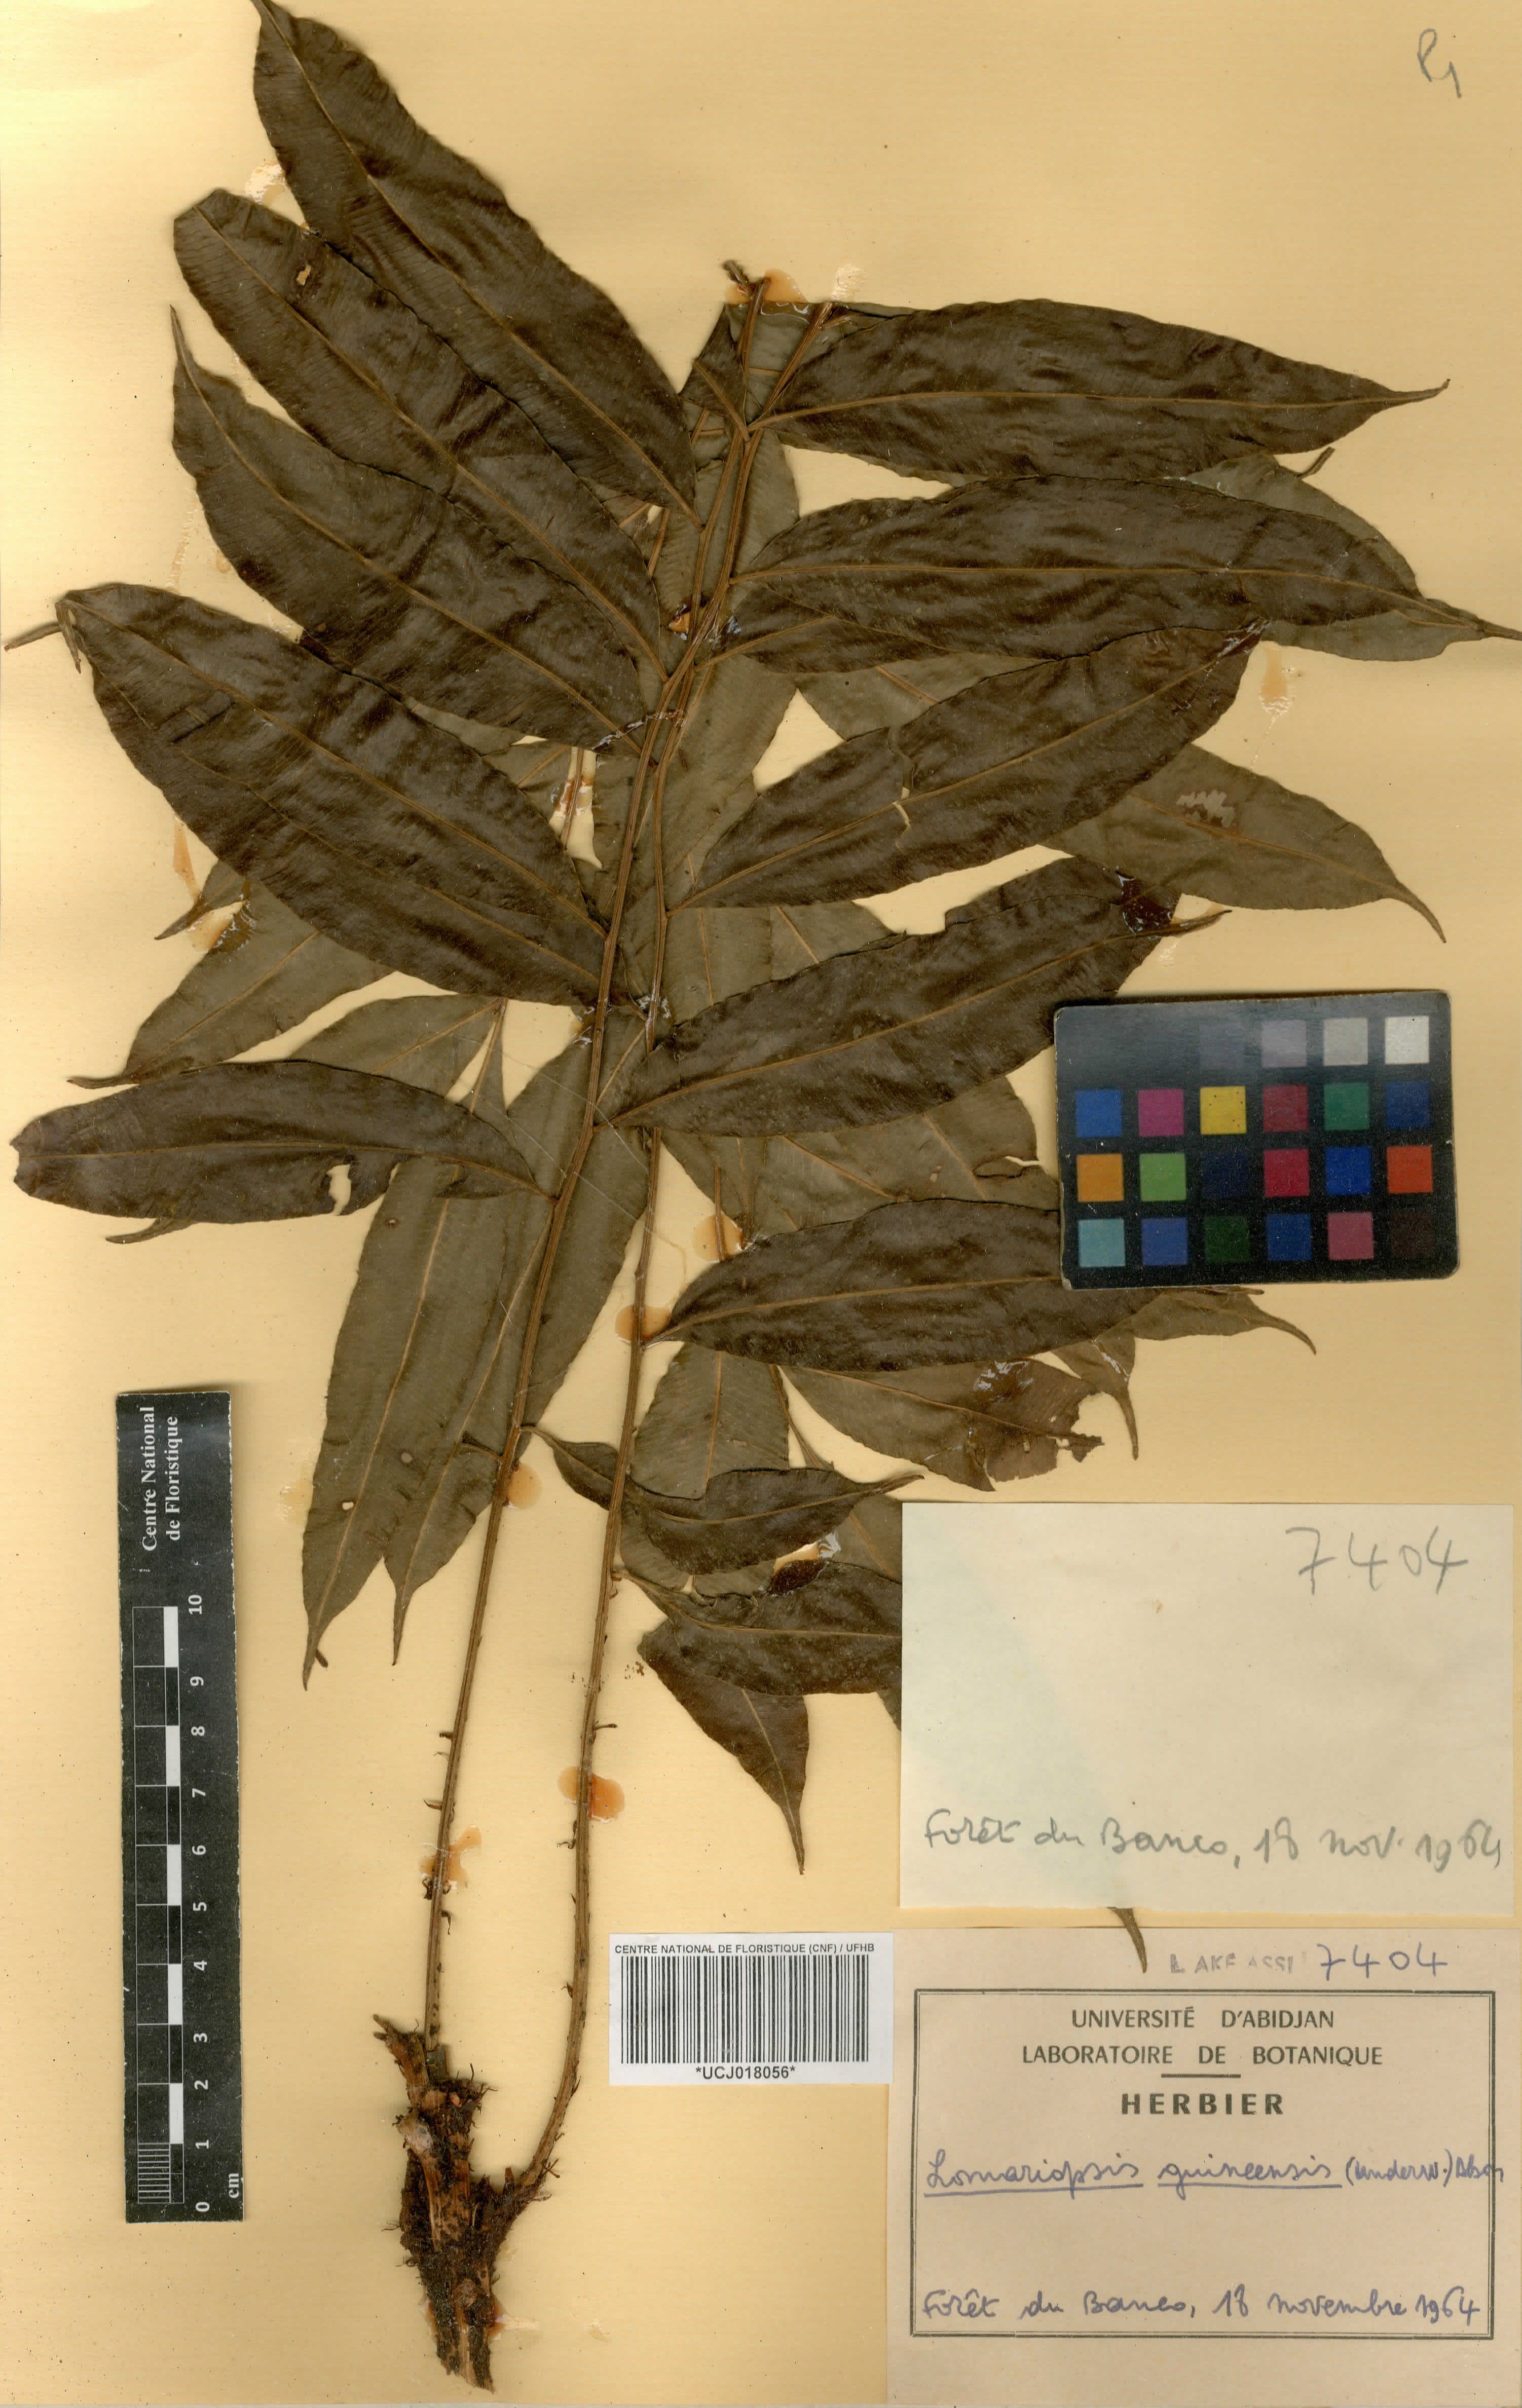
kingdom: Plantae
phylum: Tracheophyta
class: Polypodiopsida
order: Polypodiales
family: Lomariopsidaceae
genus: Lomariopsis
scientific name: Lomariopsis guineensis
